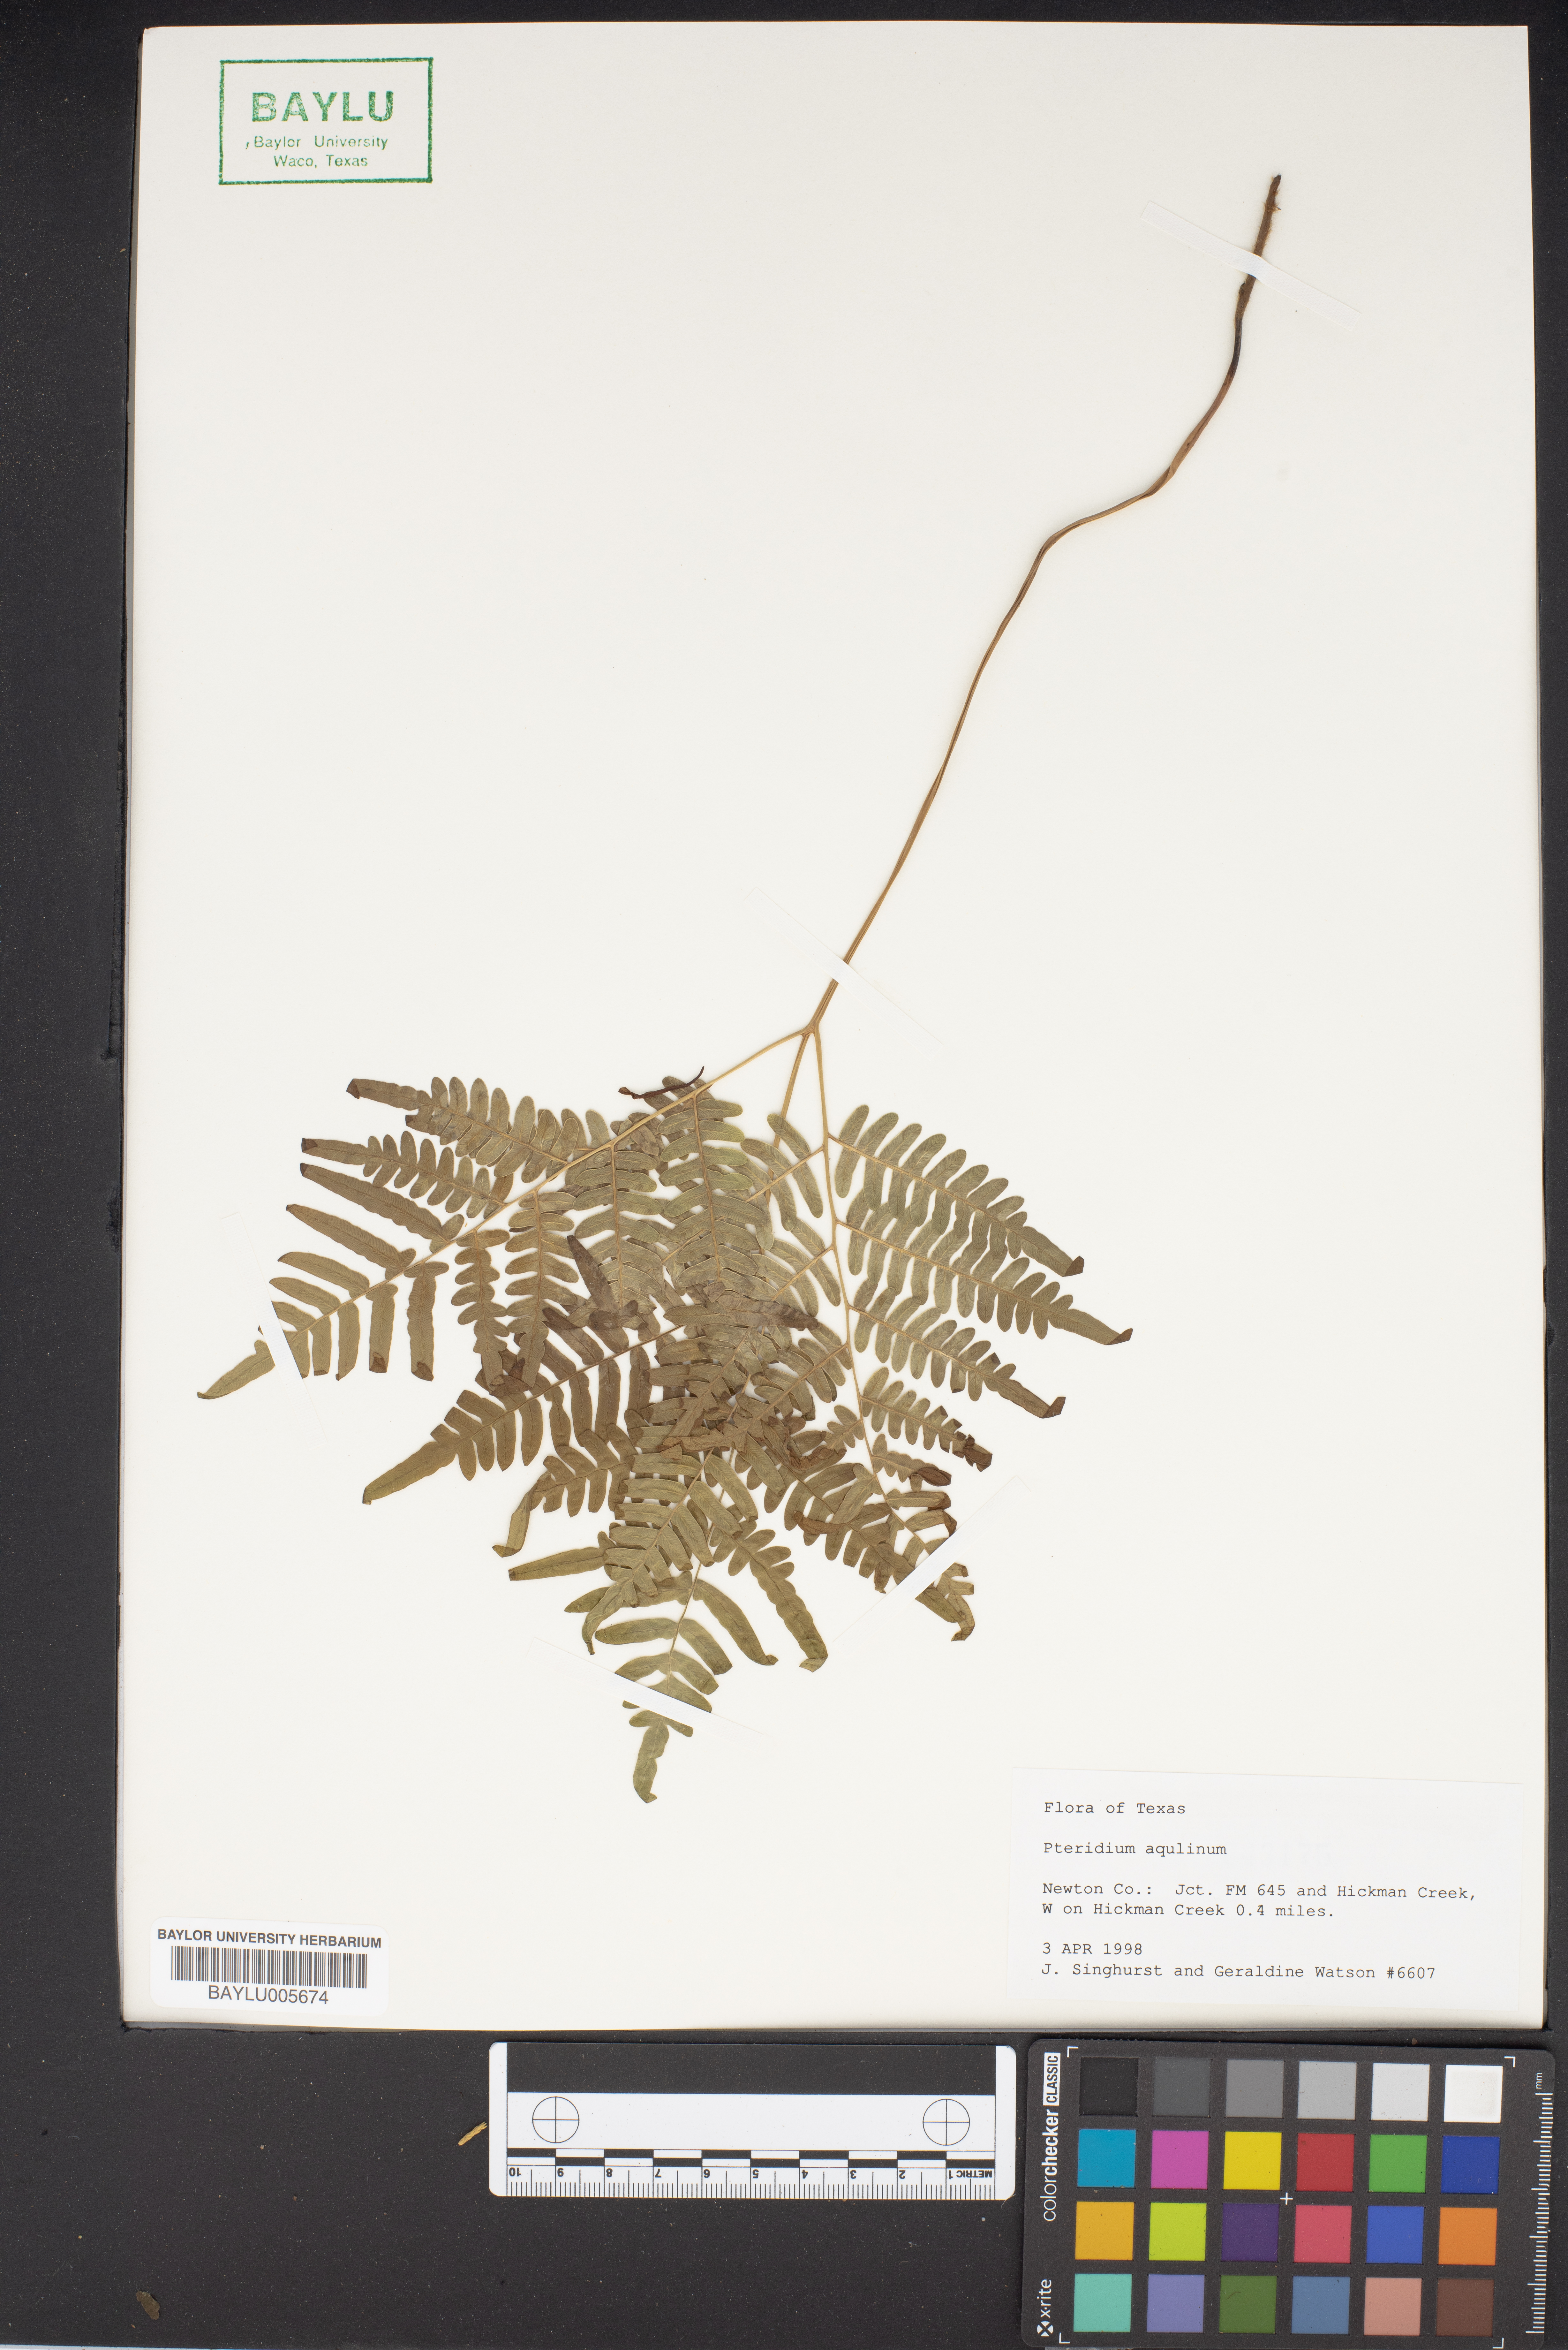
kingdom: Plantae
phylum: Tracheophyta
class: Polypodiopsida
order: Polypodiales
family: Dennstaedtiaceae
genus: Pteridium
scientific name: Pteridium aquilinum
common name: Bracken
